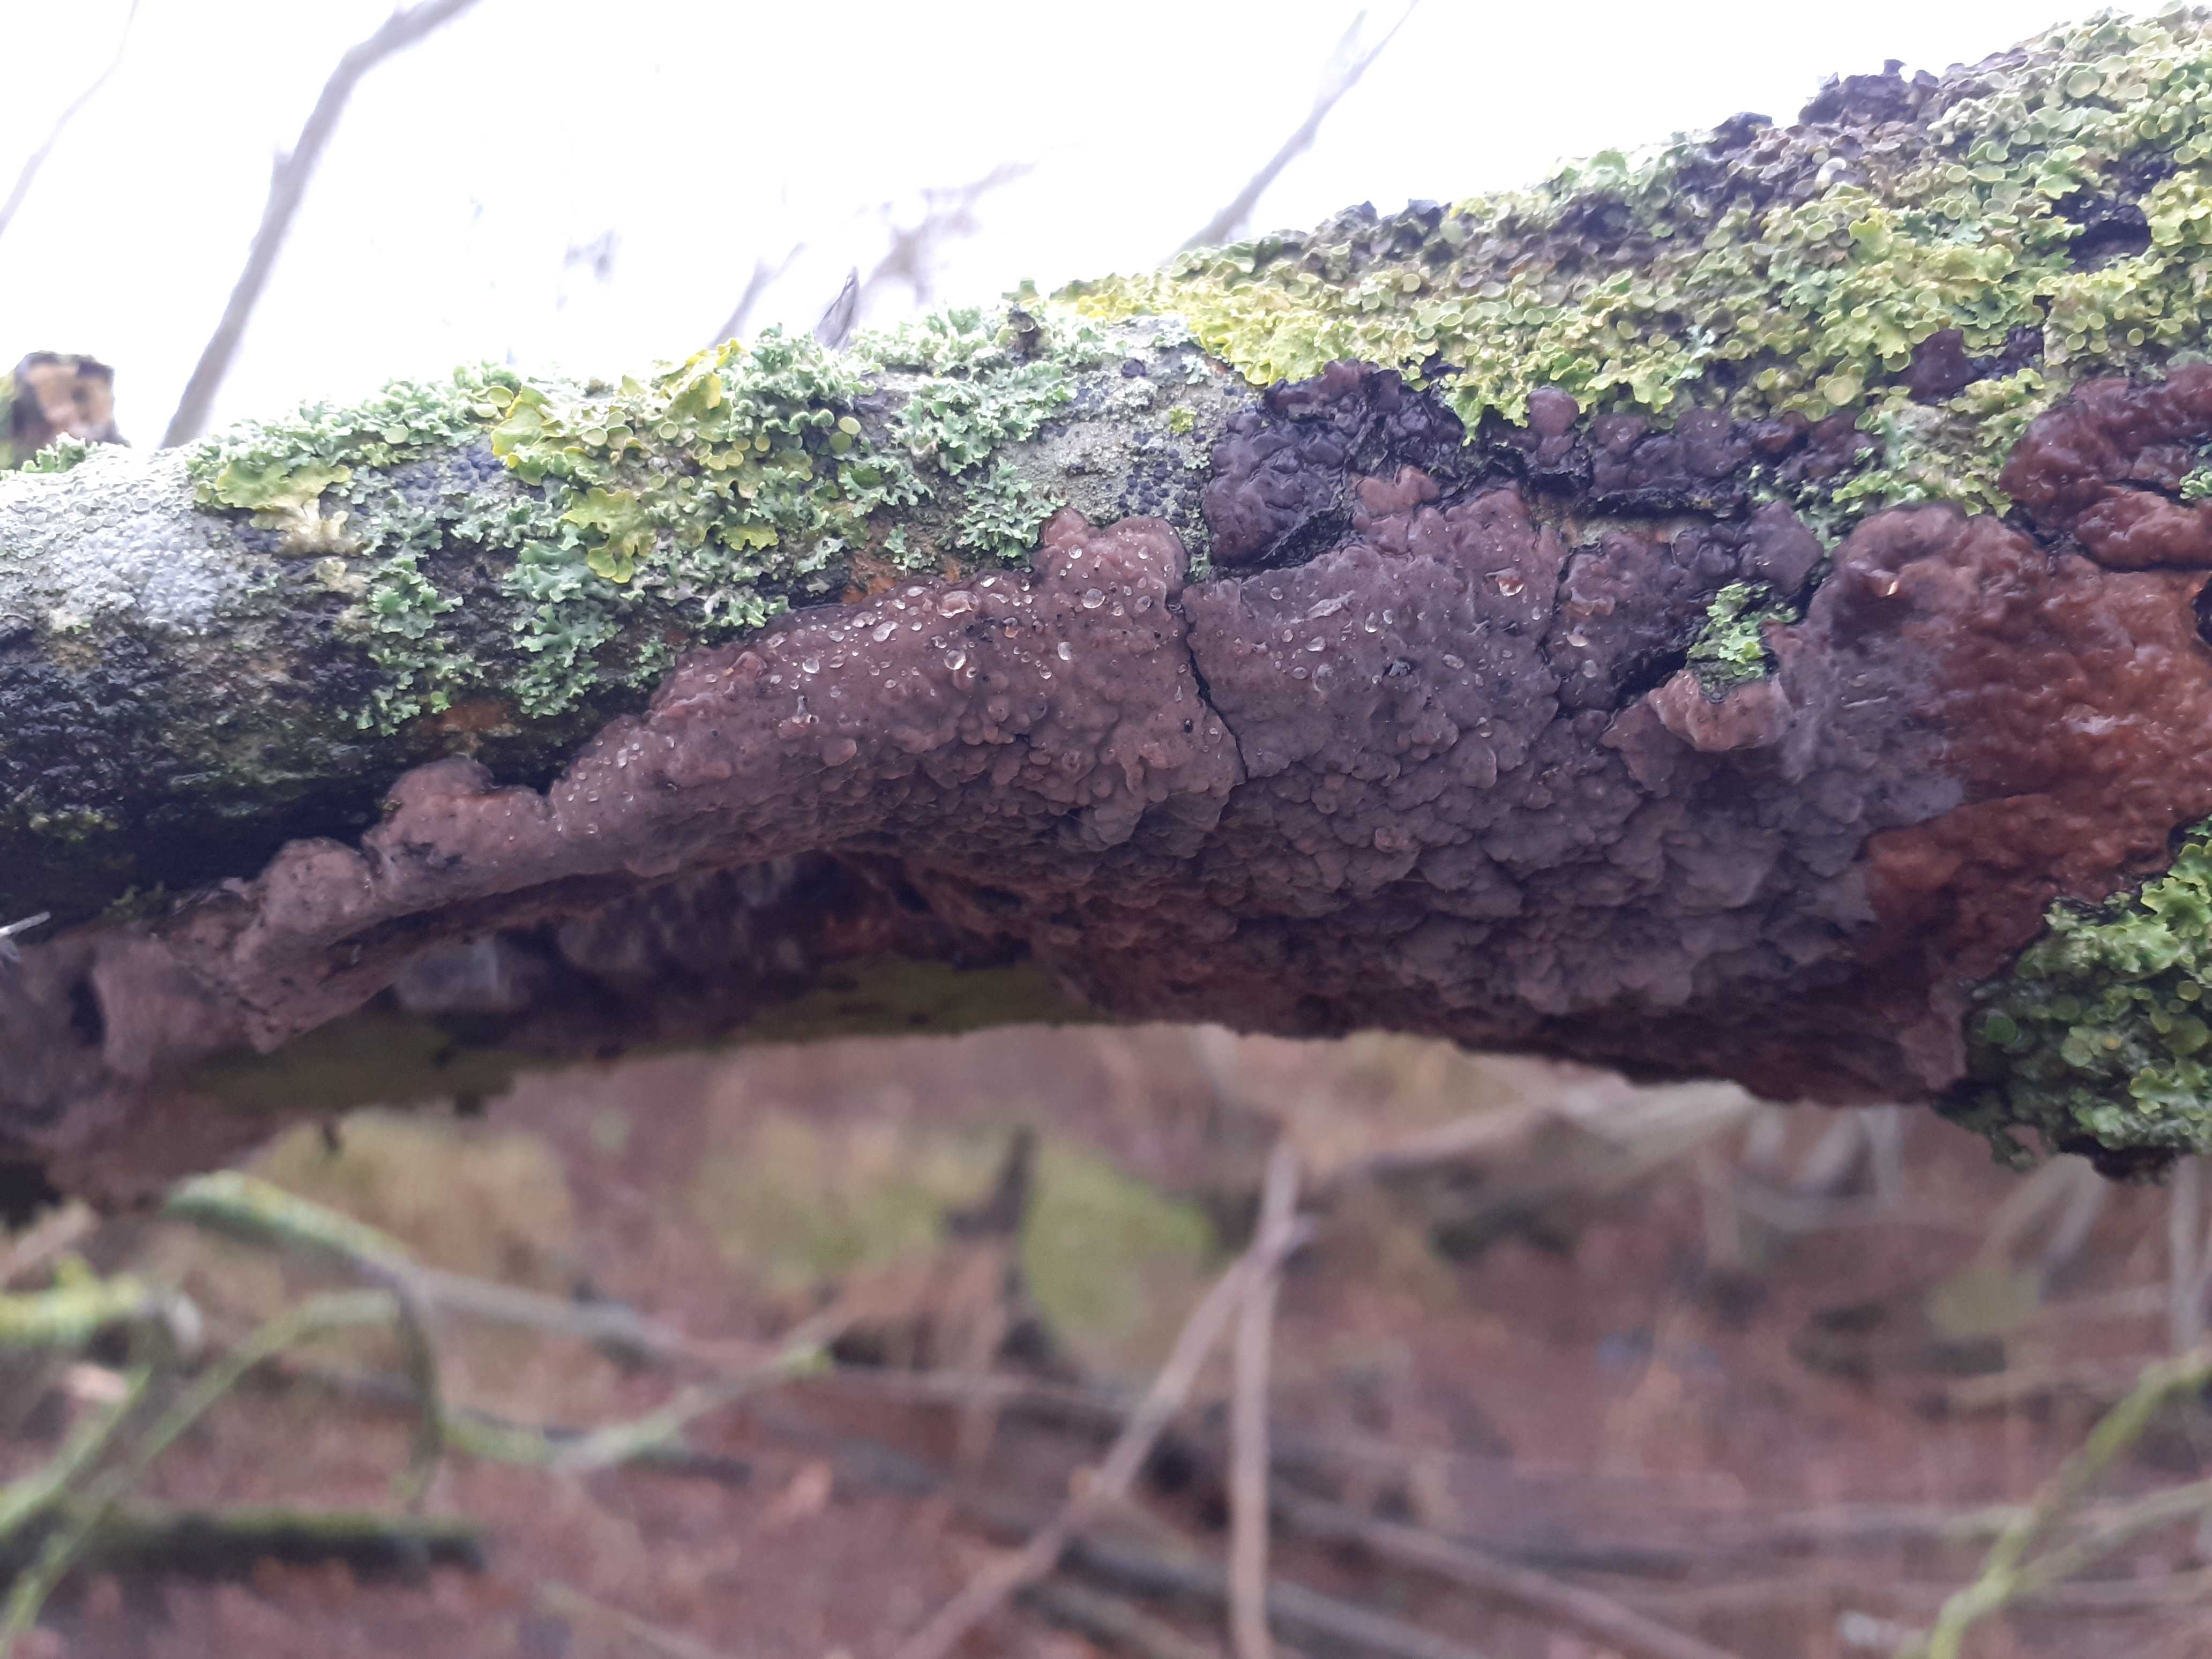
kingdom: Fungi
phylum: Basidiomycota
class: Agaricomycetes
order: Russulales
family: Peniophoraceae
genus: Peniophora
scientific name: Peniophora quercina
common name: ege-voksskind
